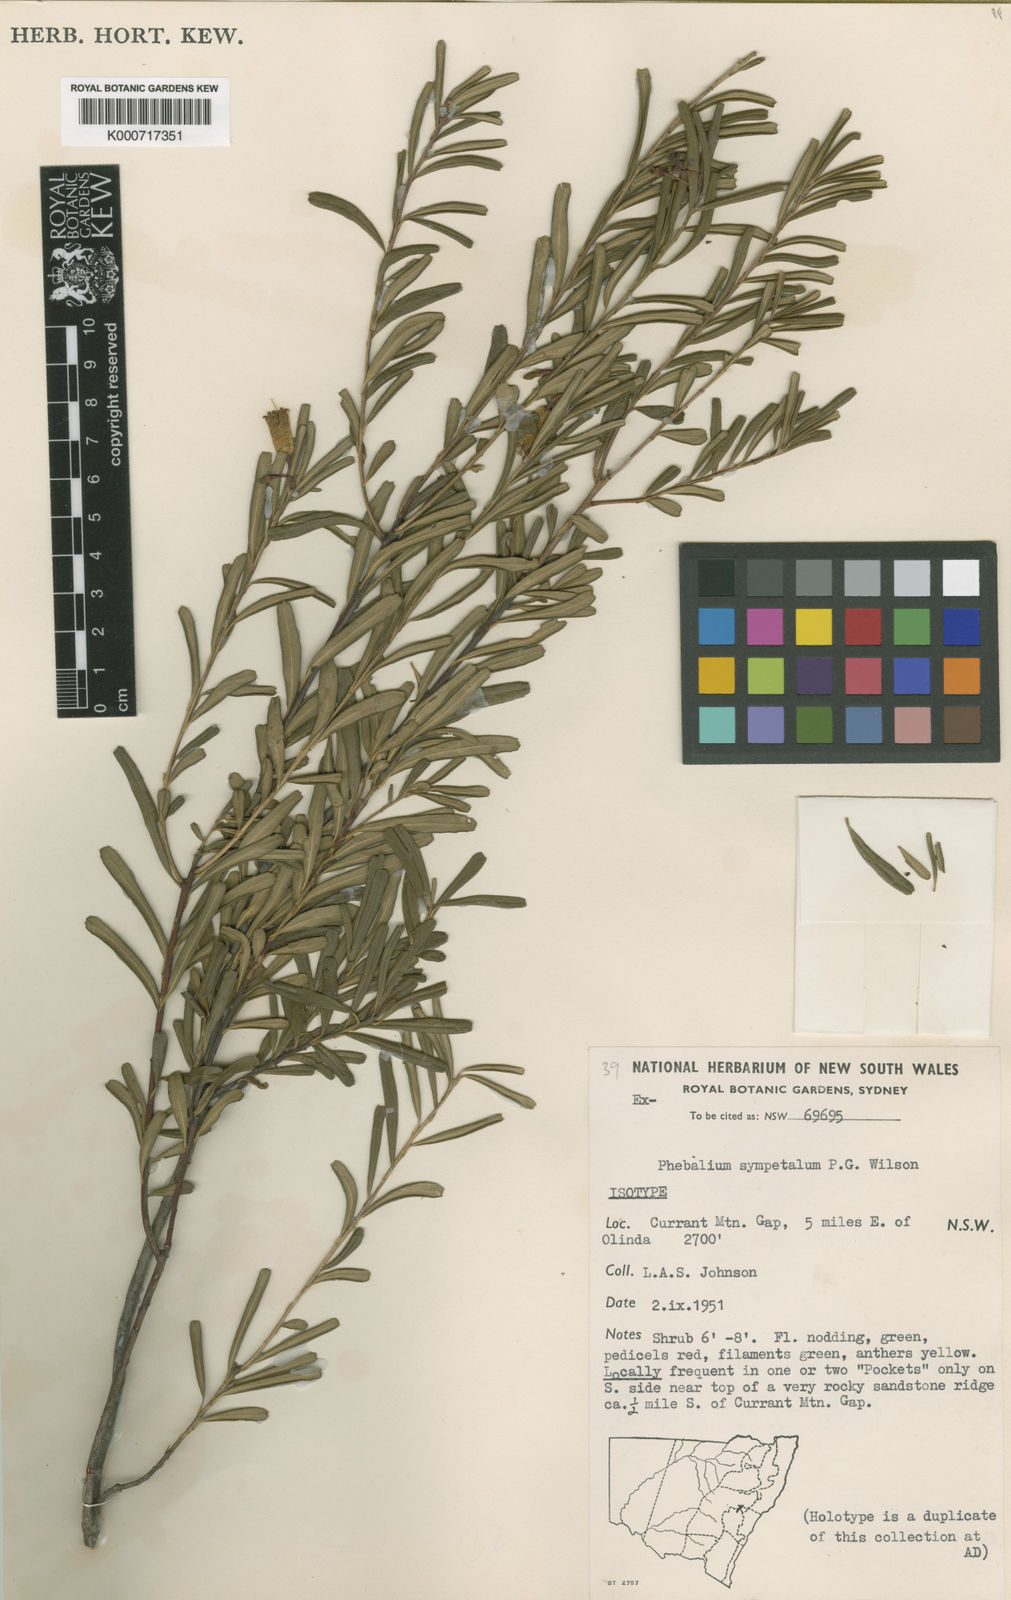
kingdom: Plantae
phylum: Tracheophyta
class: Magnoliopsida
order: Sapindales
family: Rutaceae
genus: Leionema
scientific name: Leionema sympetalum
